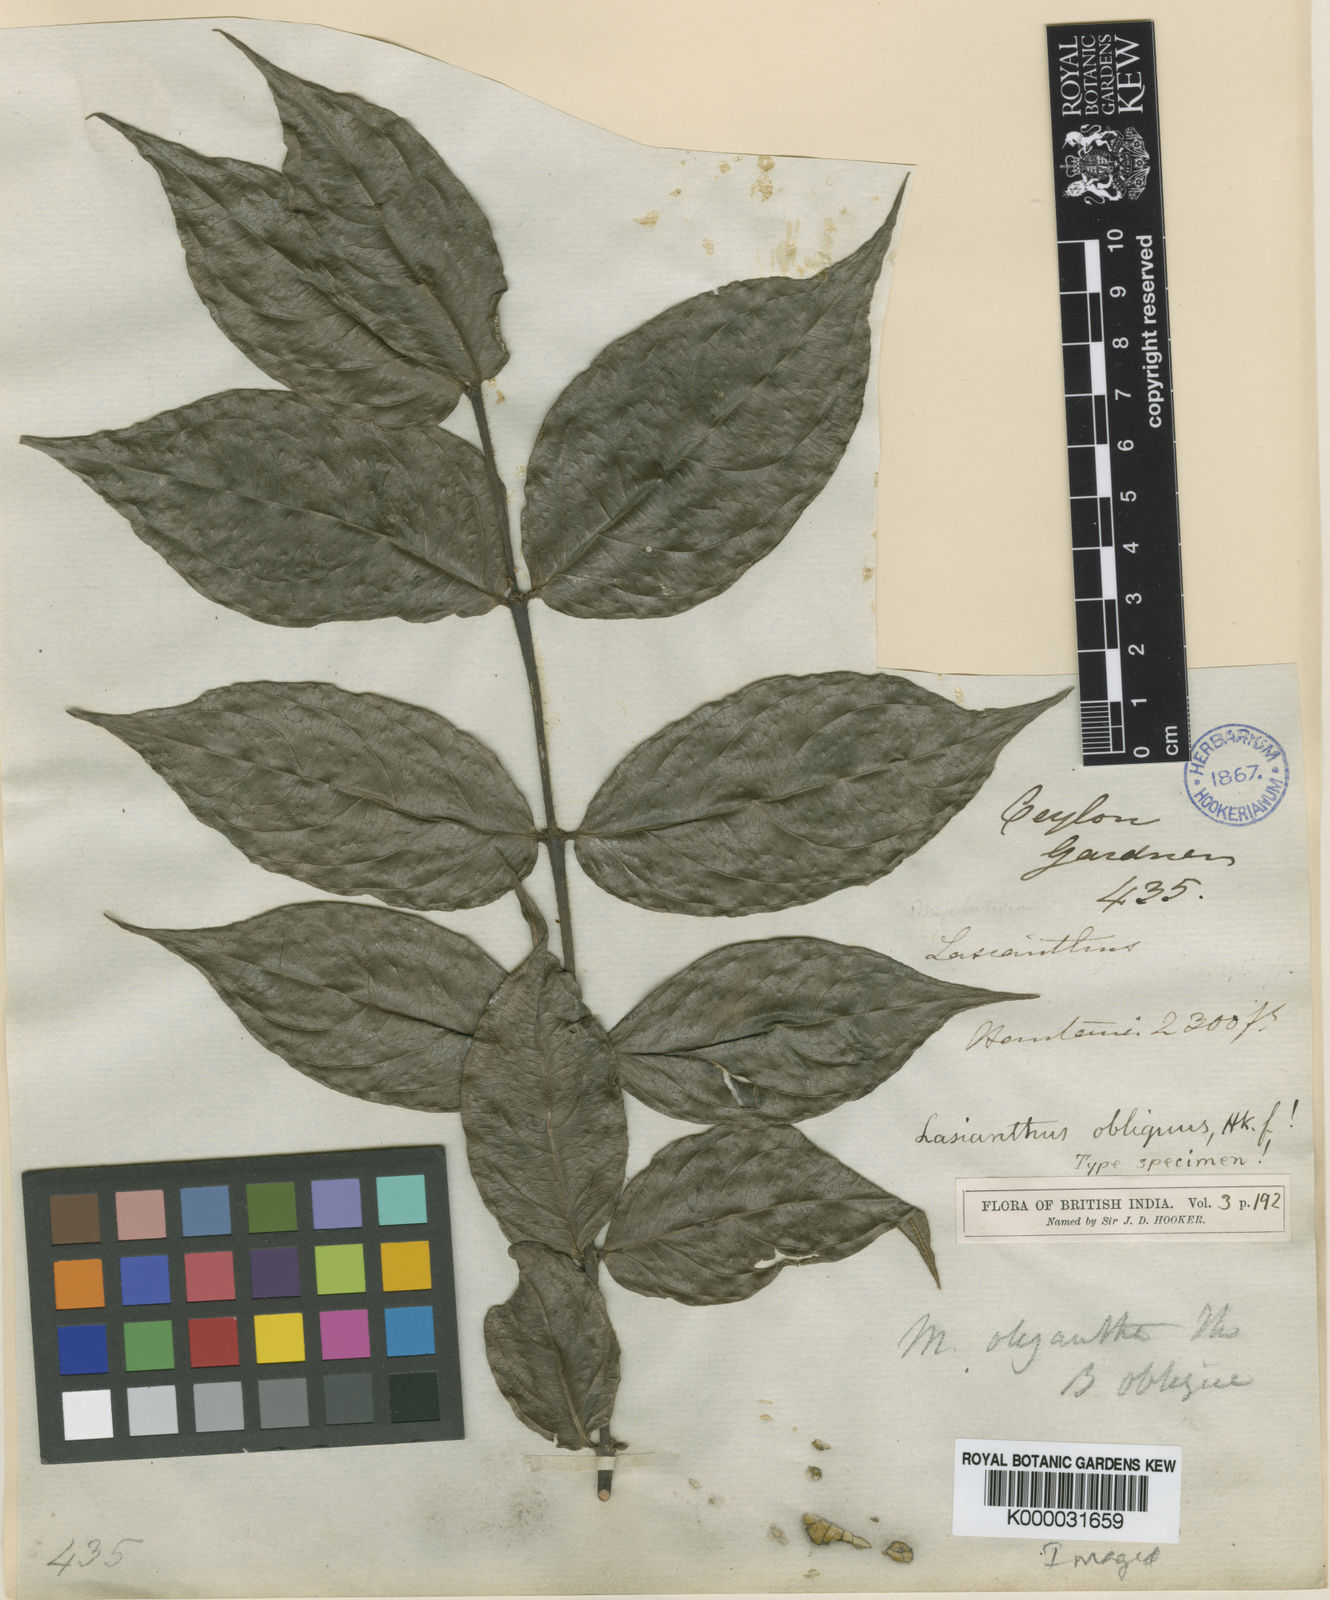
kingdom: Plantae
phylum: Tracheophyta
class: Magnoliopsida
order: Gentianales
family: Rubiaceae
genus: Lasianthus
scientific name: Lasianthus obliquus
